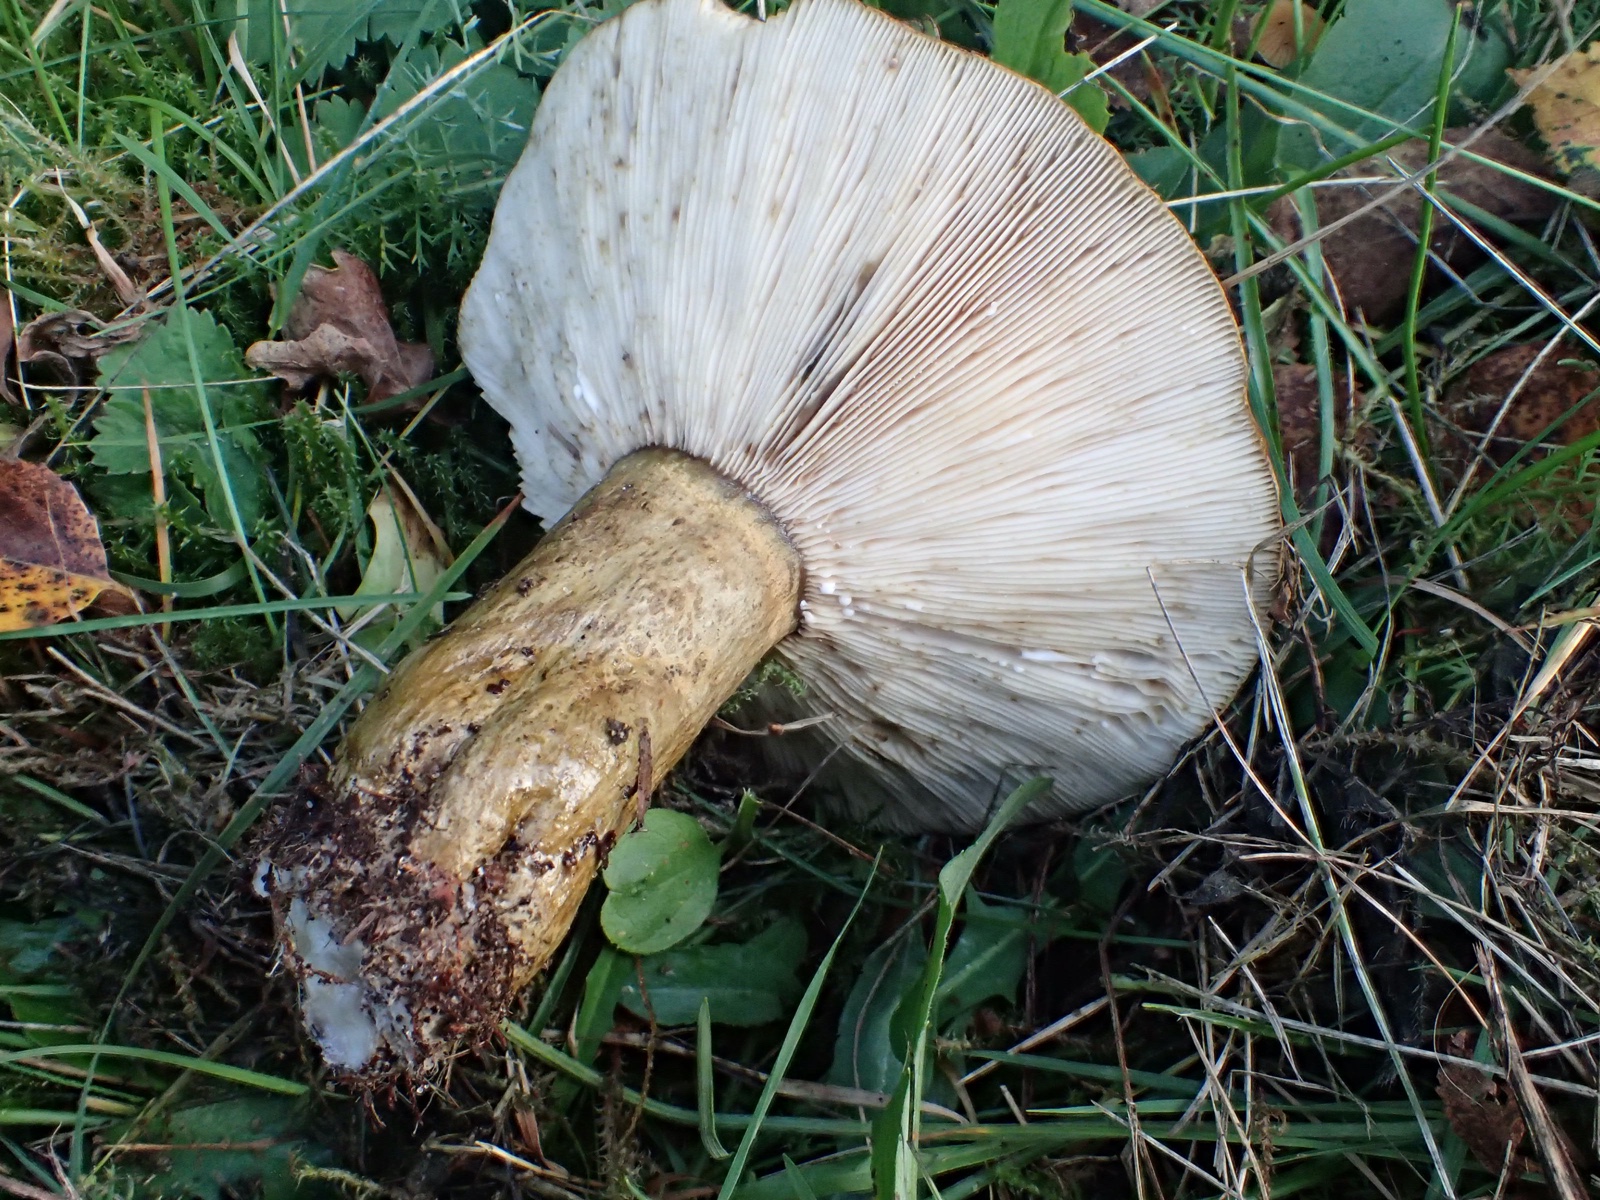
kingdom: Fungi
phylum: Basidiomycota
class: Agaricomycetes
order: Russulales
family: Russulaceae
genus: Lactarius
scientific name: Lactarius necator
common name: manddraber-mælkehat
